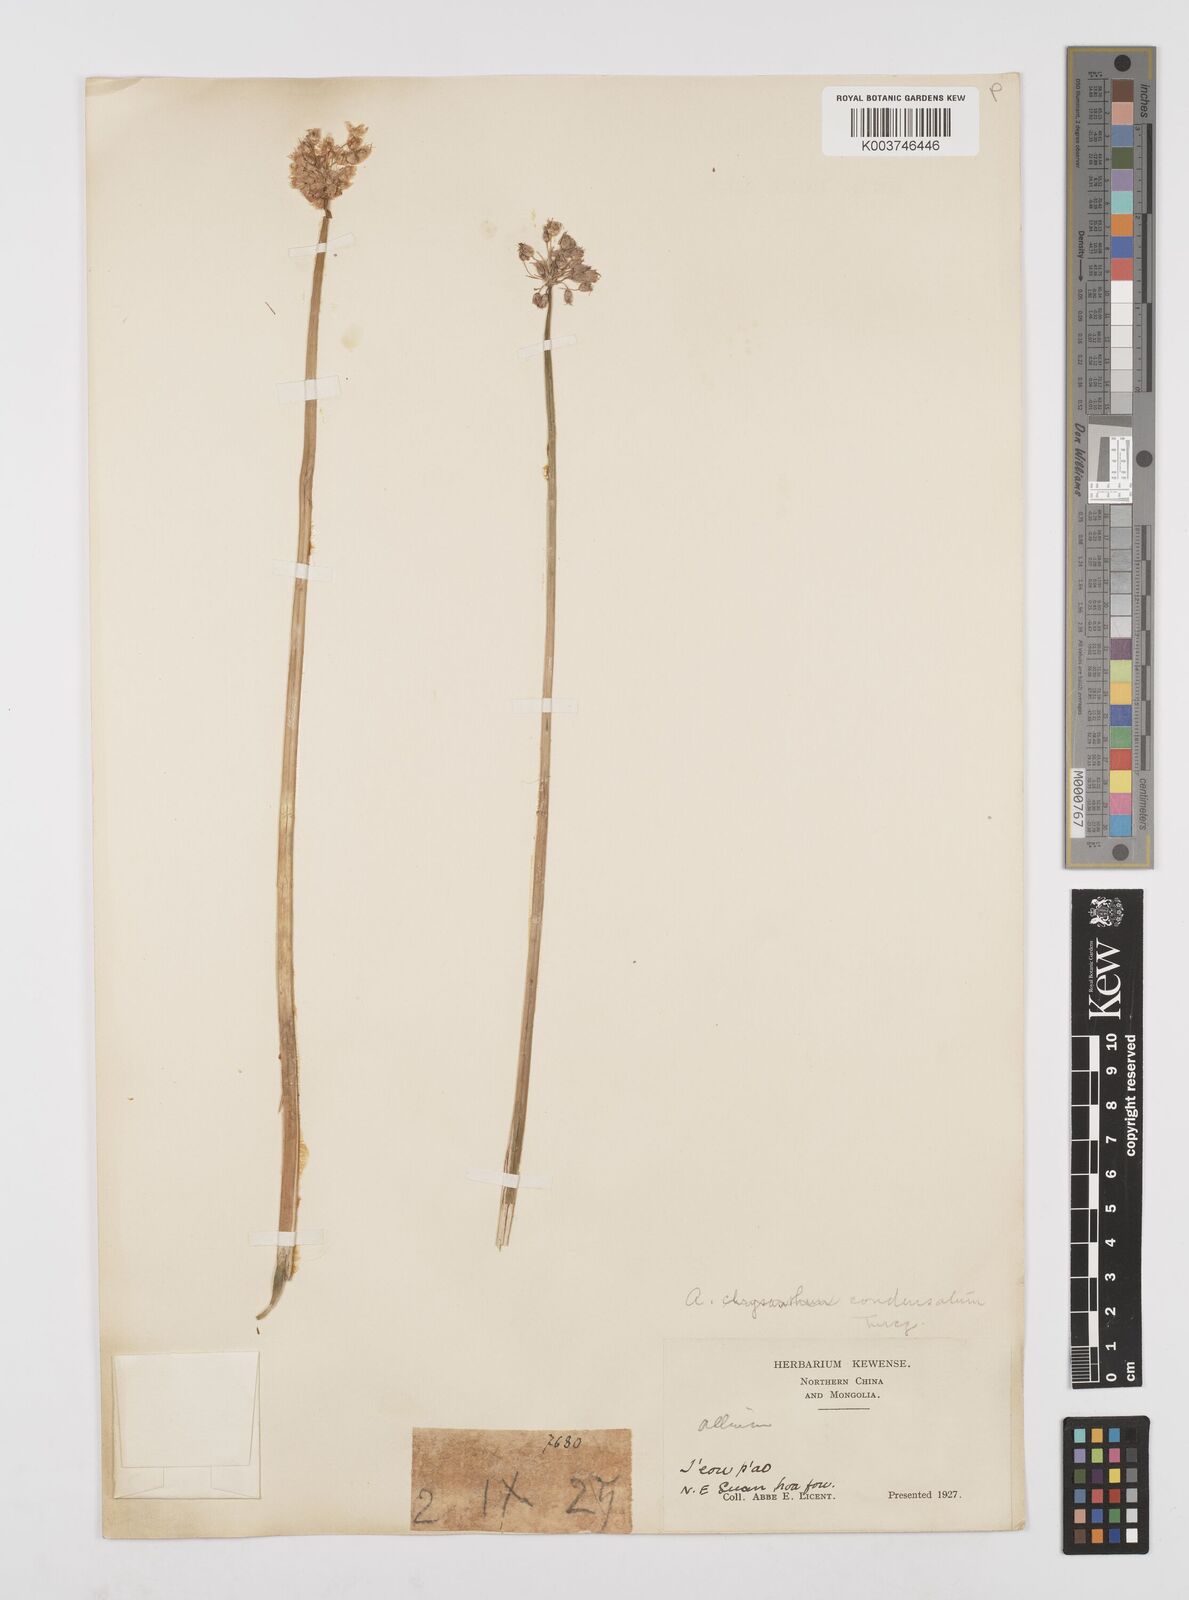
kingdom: Plantae
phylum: Tracheophyta
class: Liliopsida
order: Asparagales
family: Amaryllidaceae
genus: Allium
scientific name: Allium condensatum
